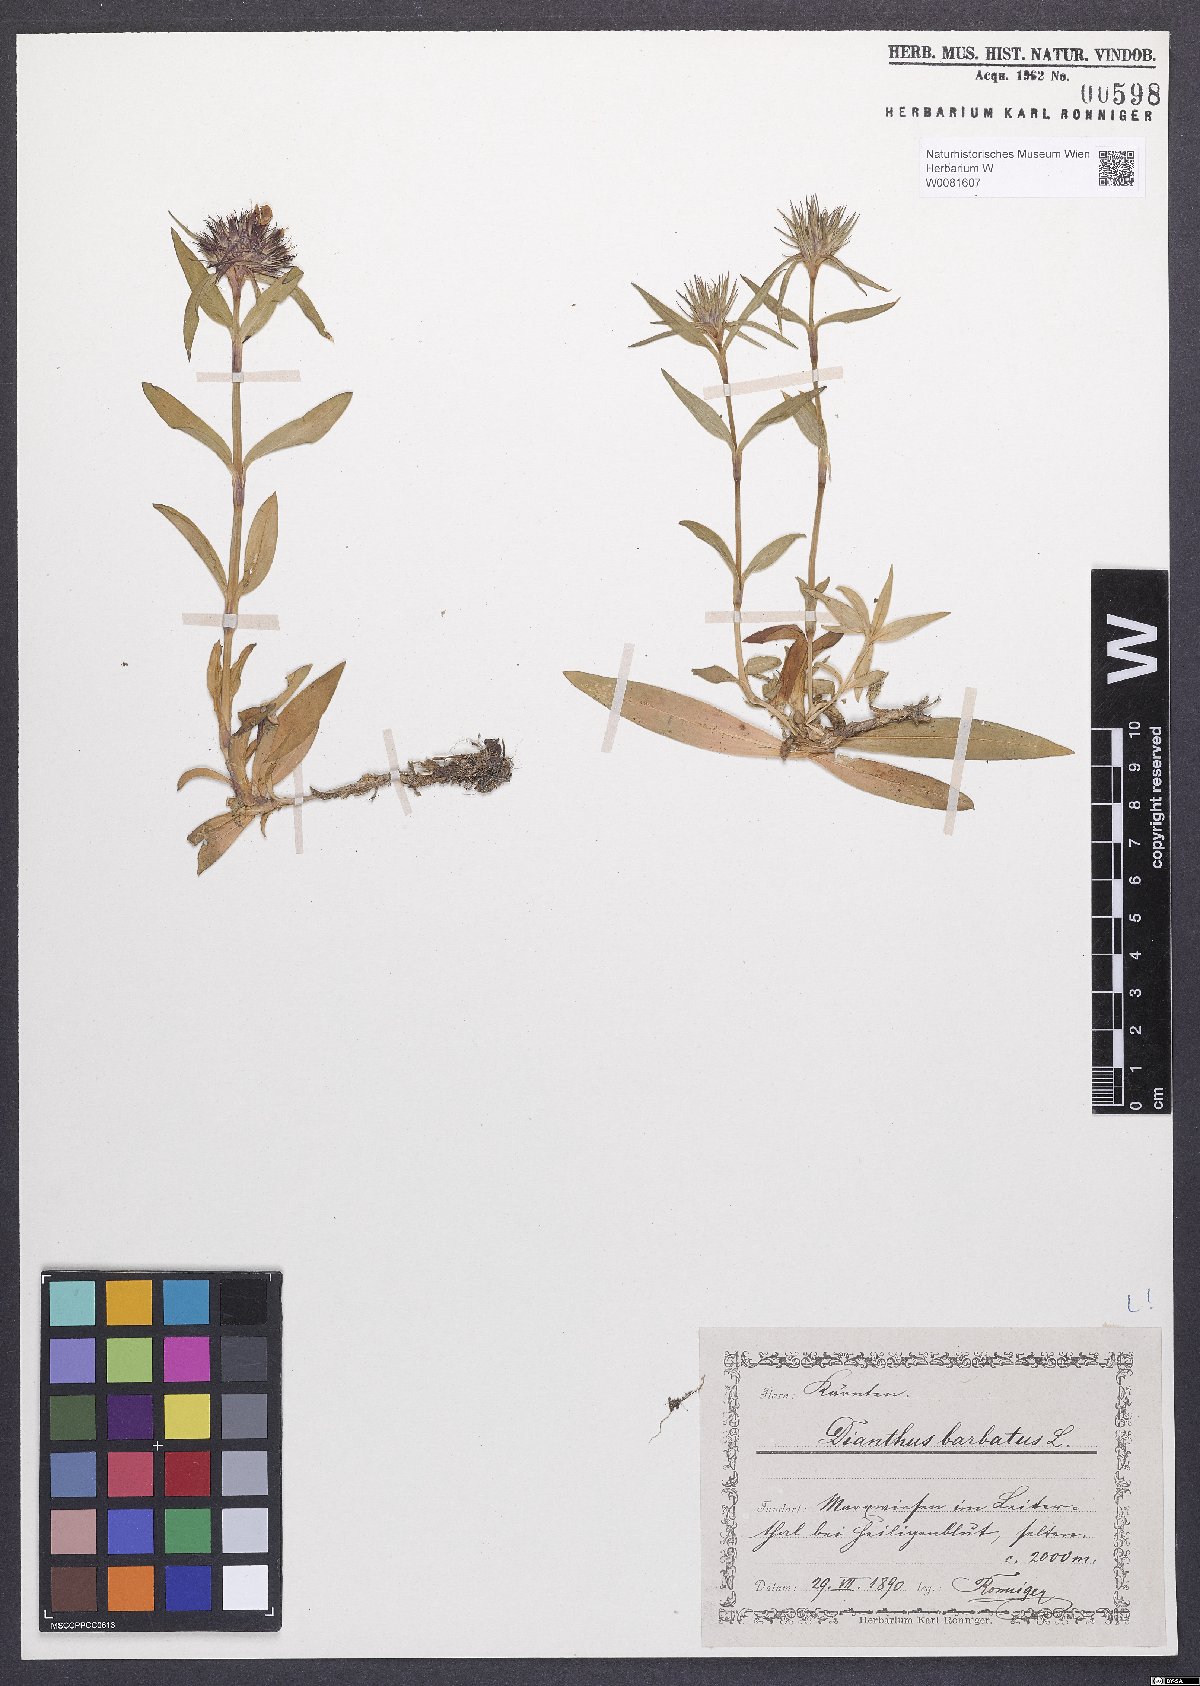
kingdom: Plantae
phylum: Tracheophyta
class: Magnoliopsida
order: Caryophyllales
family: Caryophyllaceae
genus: Dianthus
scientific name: Dianthus barbatus
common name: Sweet-william
